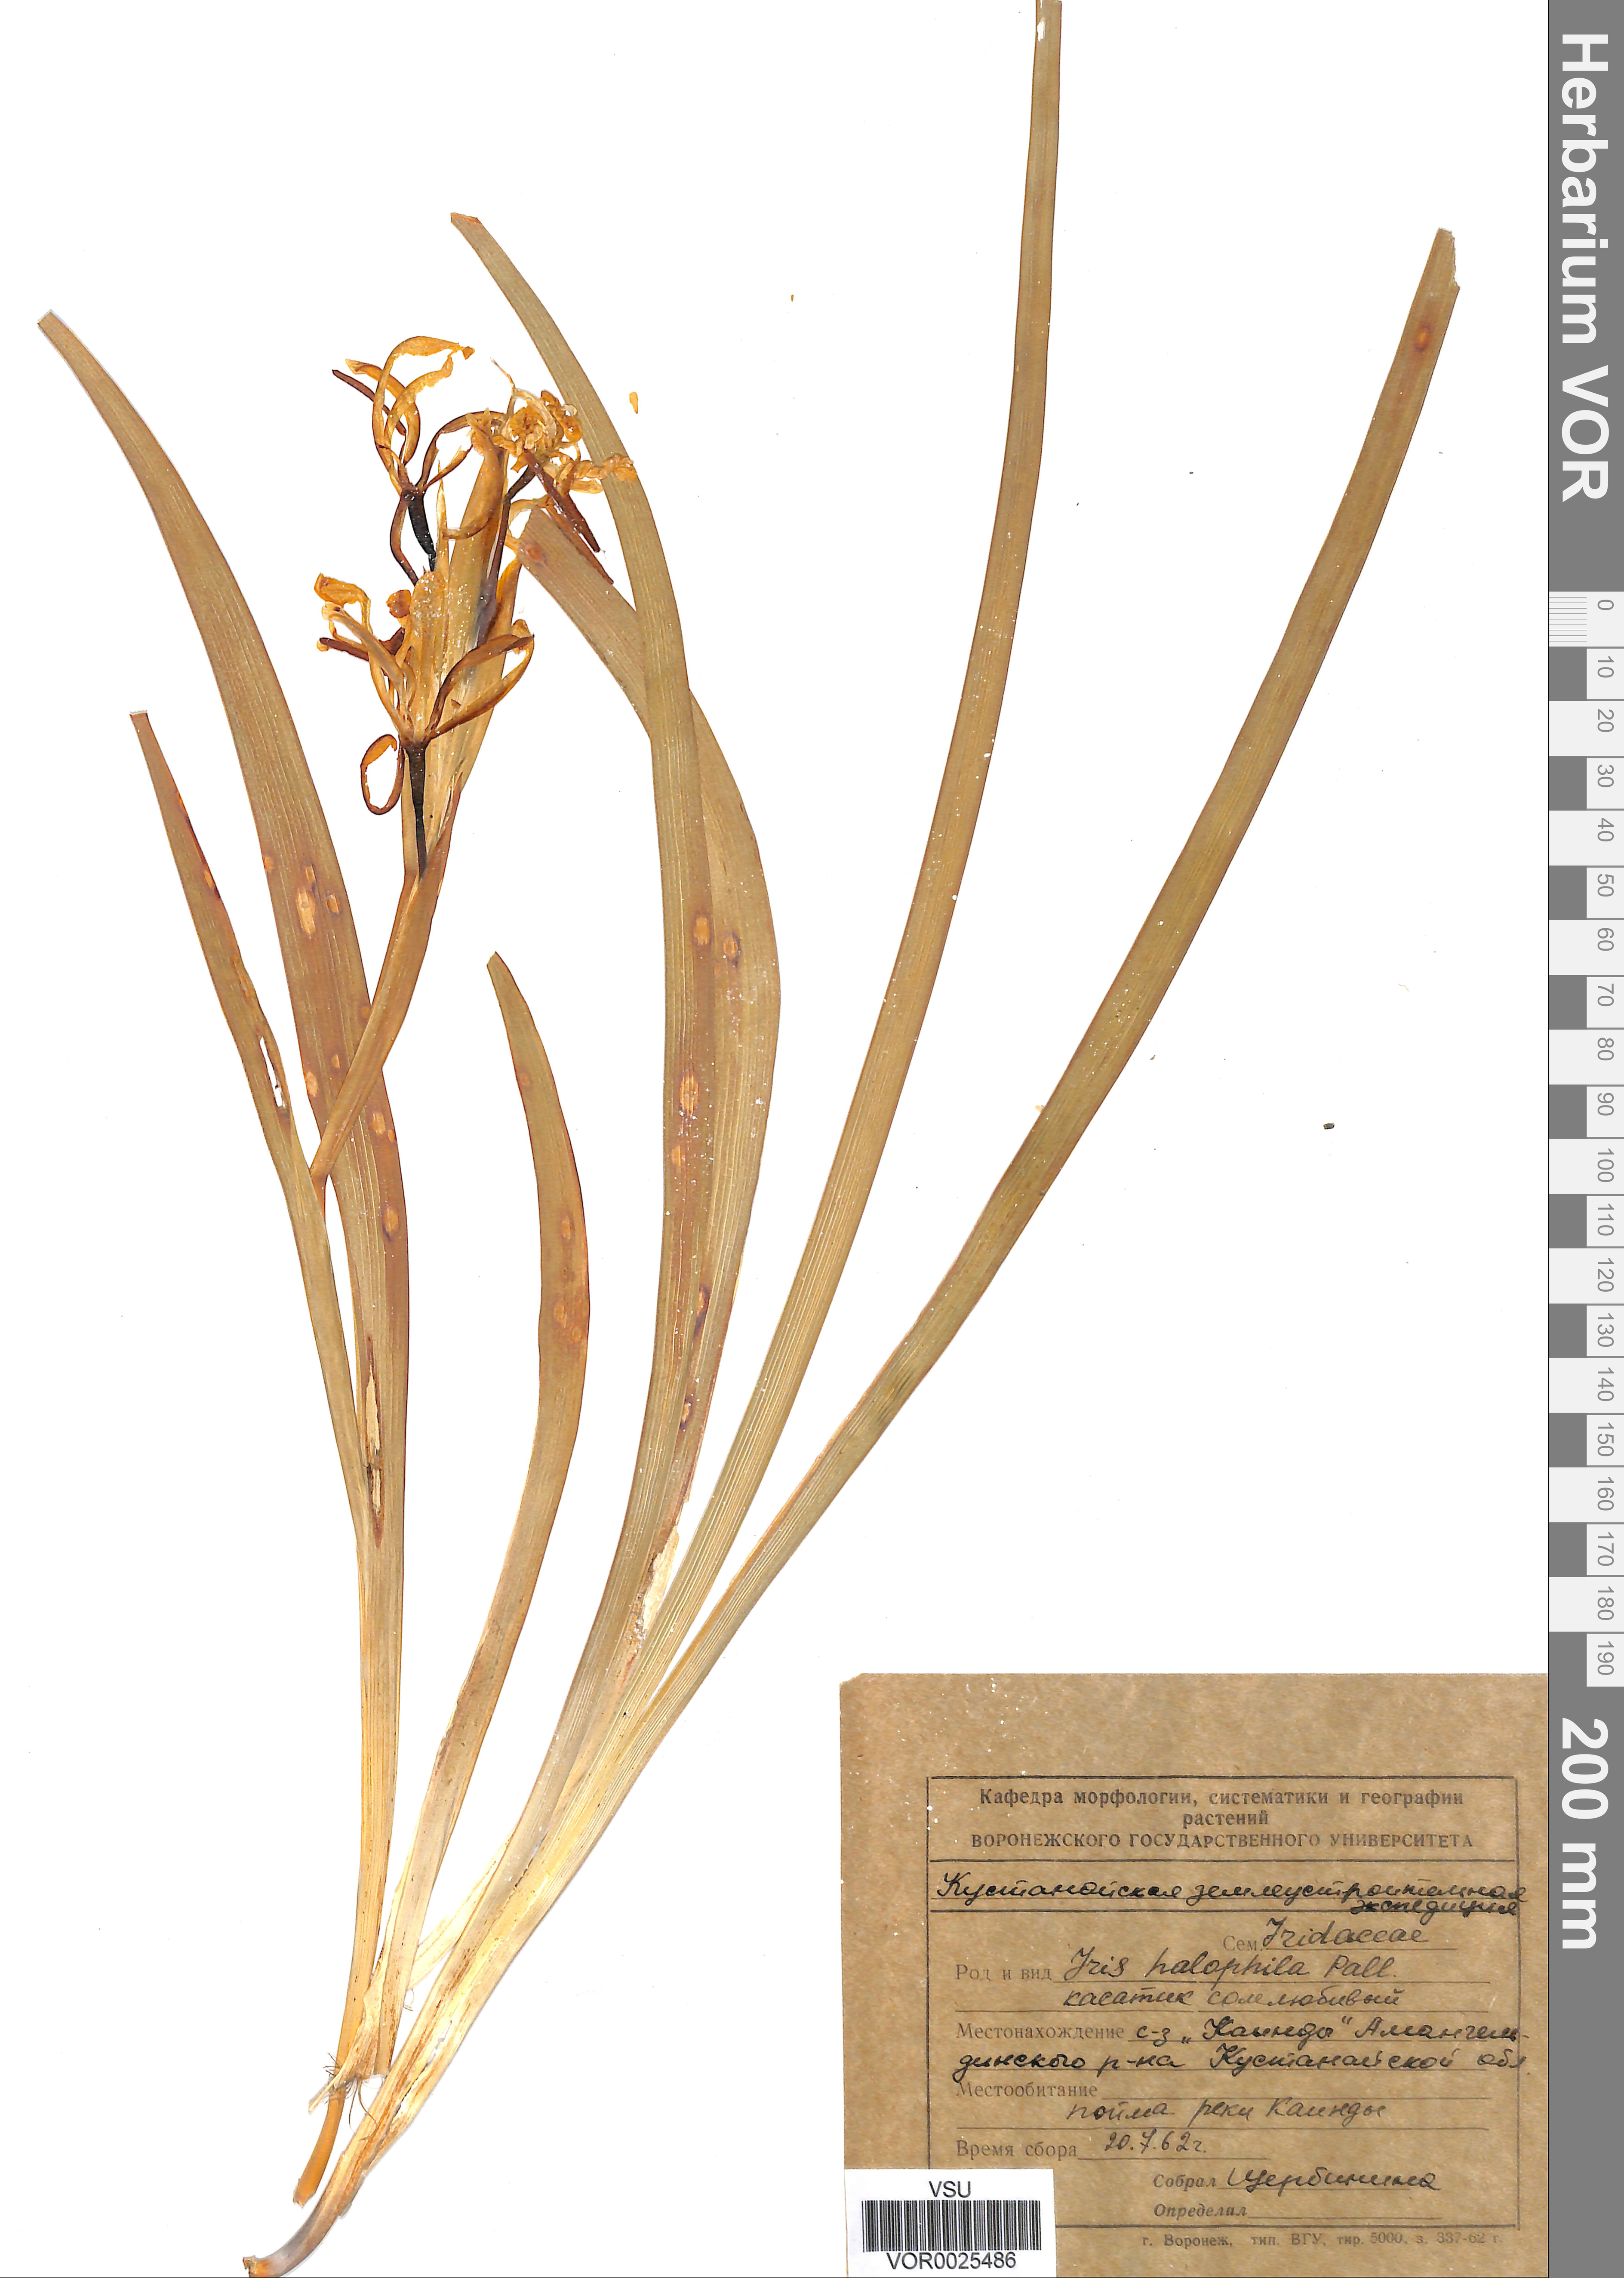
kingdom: Plantae
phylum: Tracheophyta
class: Liliopsida
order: Asparagales
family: Iridaceae
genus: Iris
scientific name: Iris halophila
